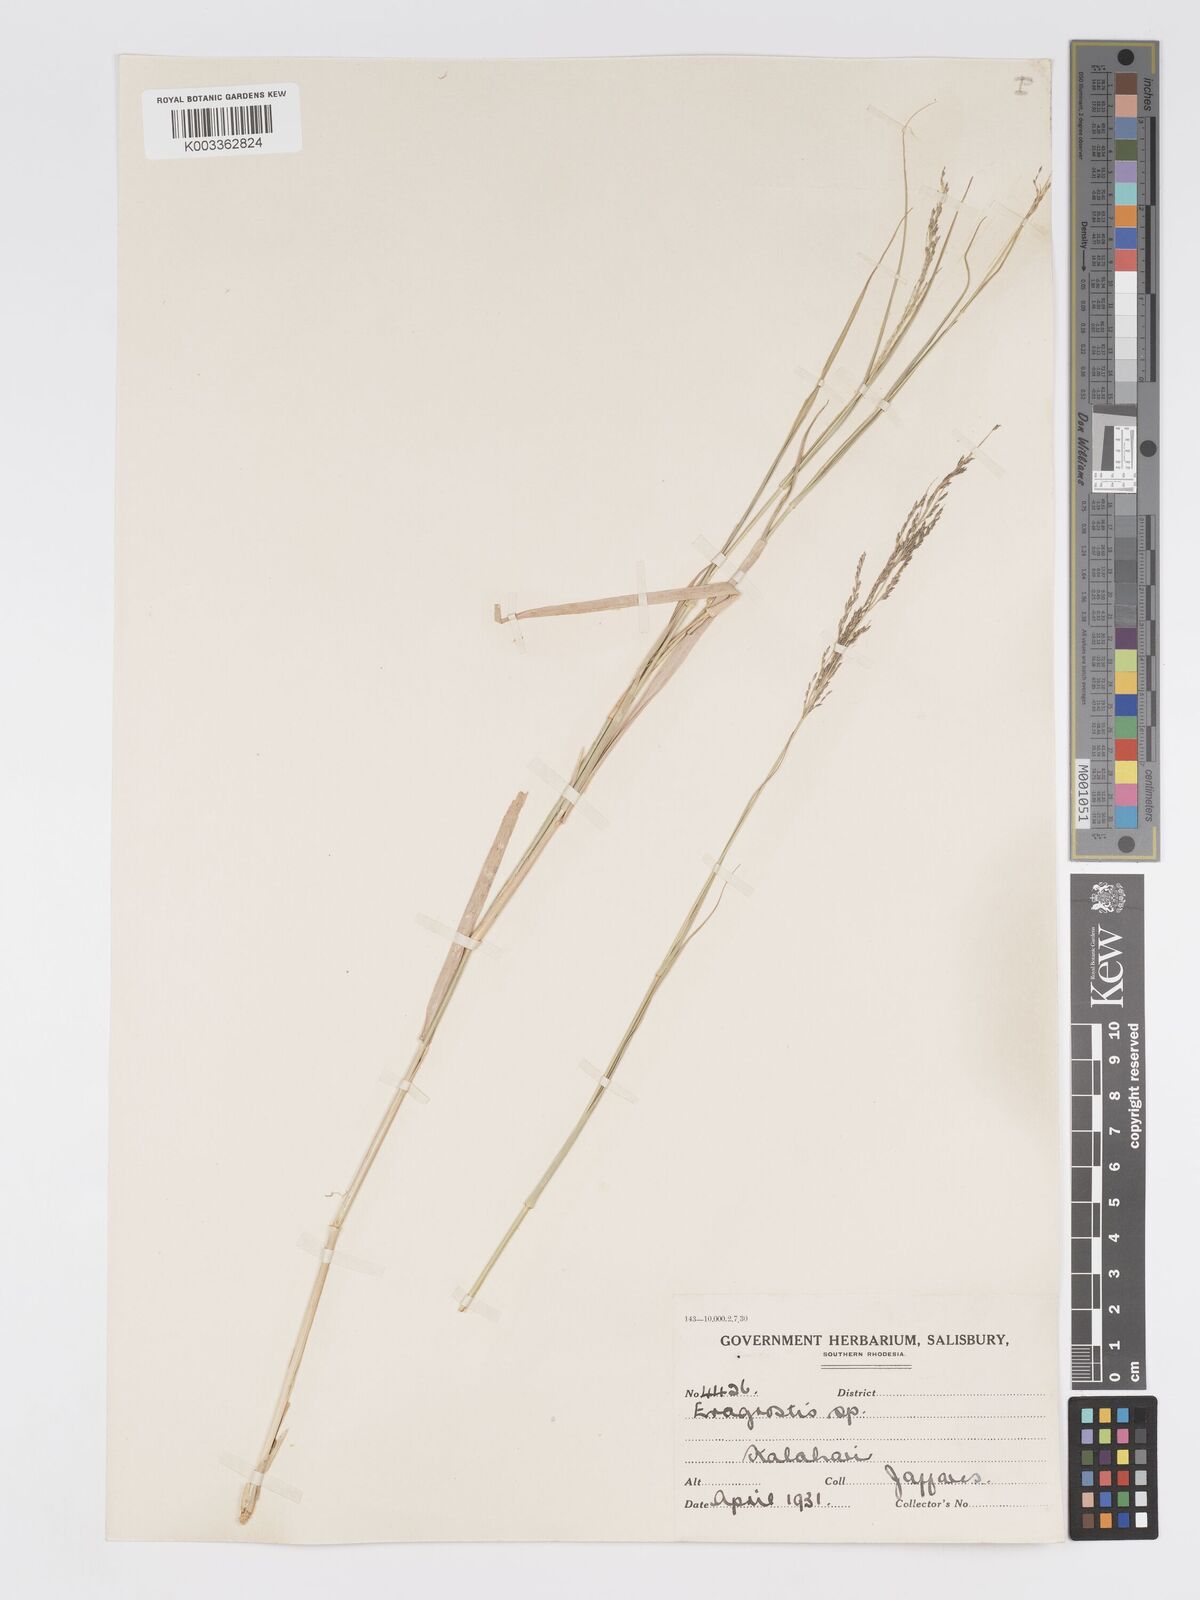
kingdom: Plantae
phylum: Tracheophyta
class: Liliopsida
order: Poales
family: Poaceae
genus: Eragrostis
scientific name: Eragrostis cylindriflora
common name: Cylinderflower lovegrass
